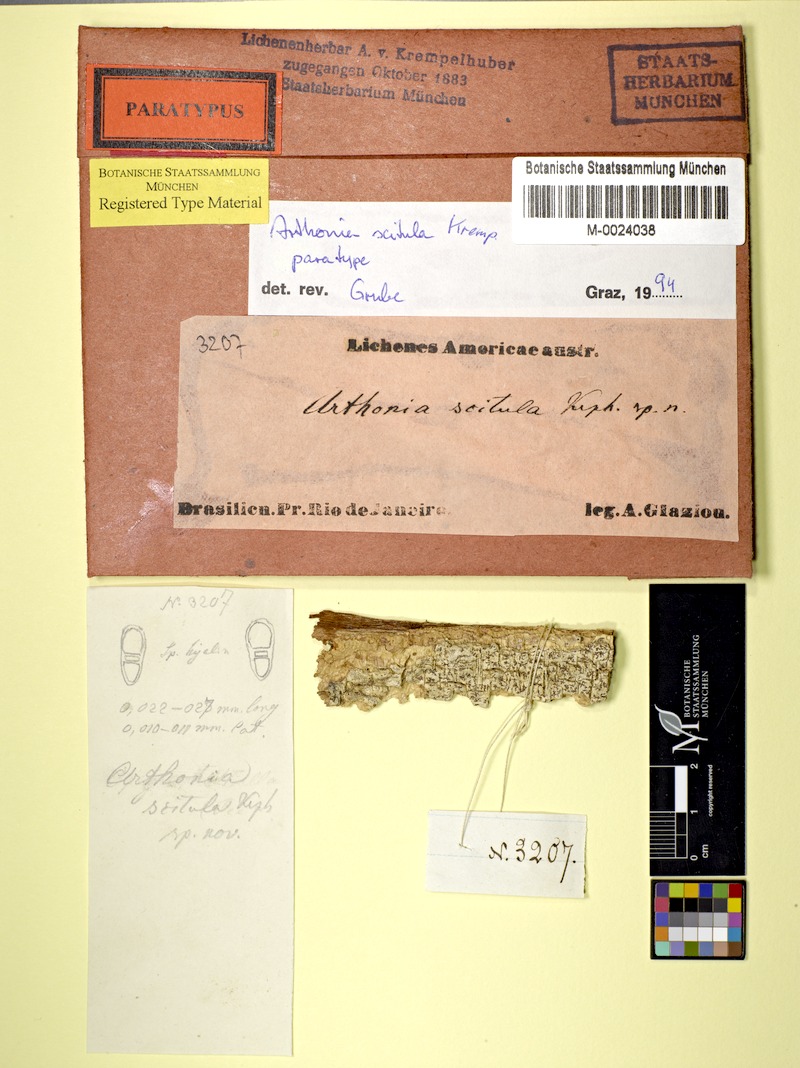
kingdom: Fungi
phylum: Ascomycota
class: Arthoniomycetes
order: Arthoniales
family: Arthoniaceae
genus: Arthonia
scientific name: Arthonia
